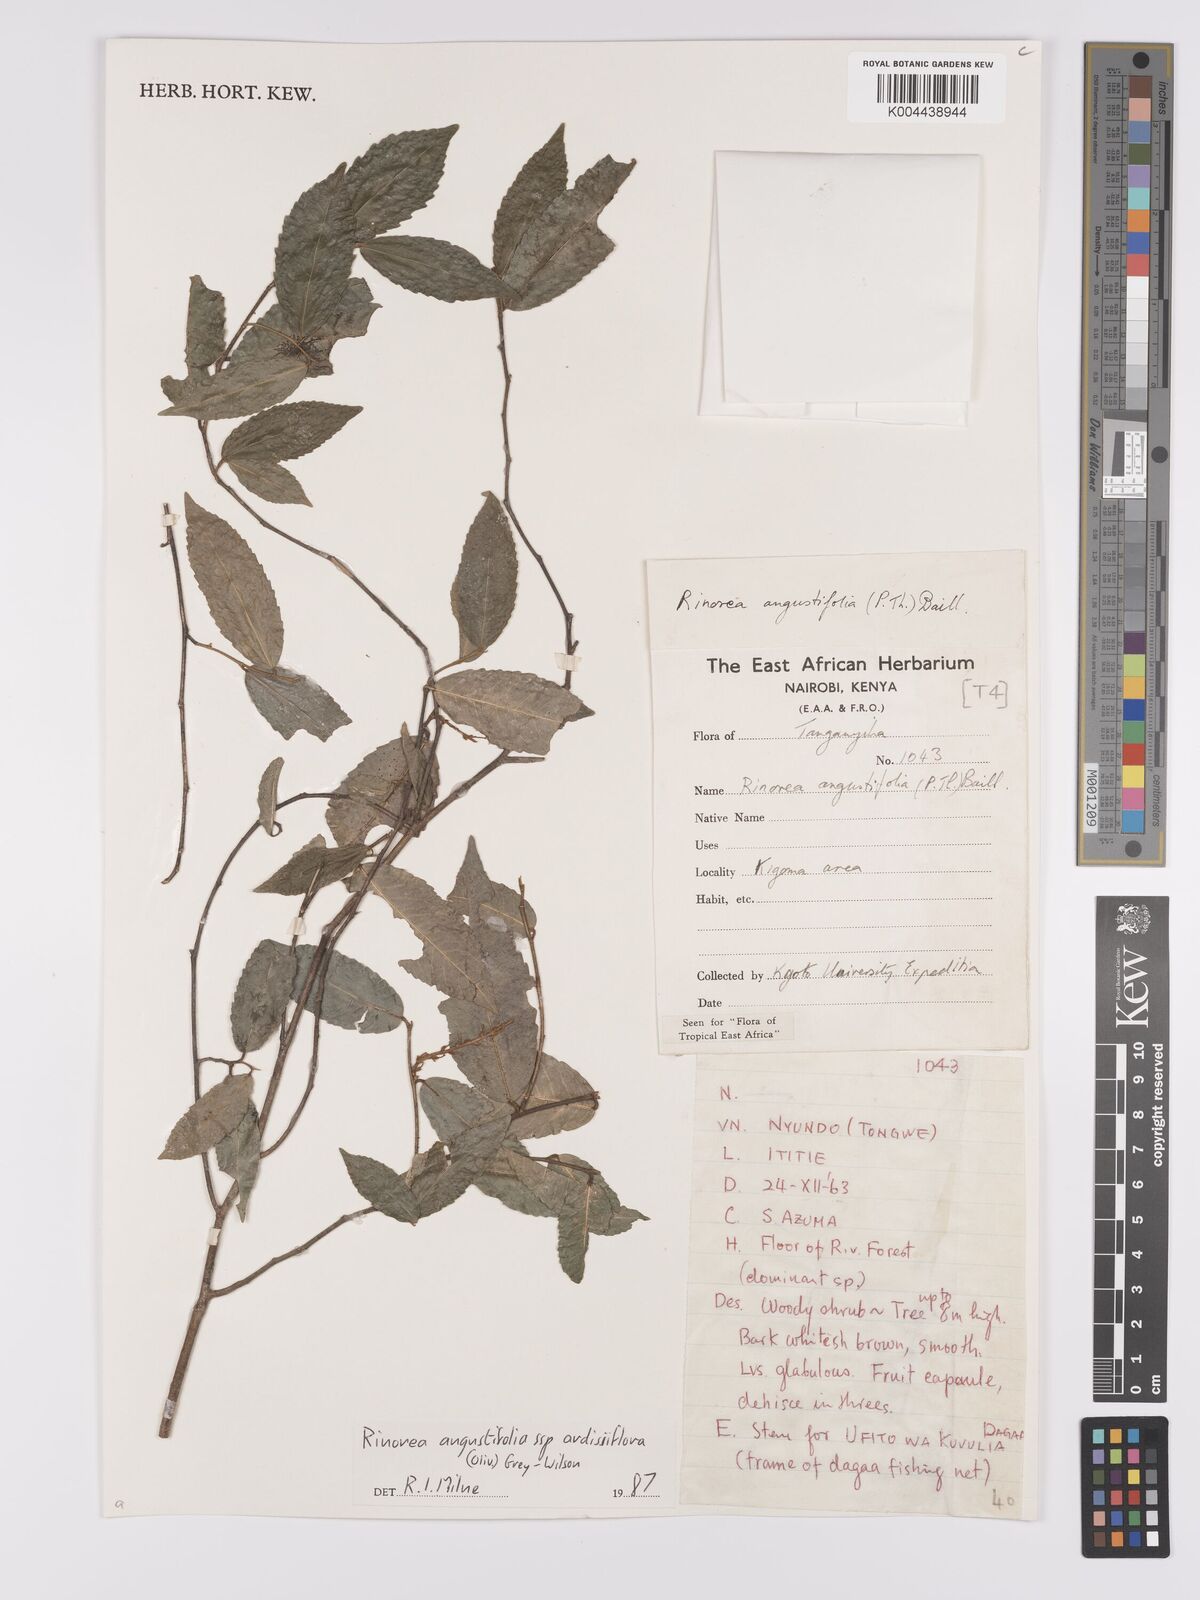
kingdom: Plantae
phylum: Tracheophyta
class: Magnoliopsida
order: Malpighiales
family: Violaceae
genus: Rinorea
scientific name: Rinorea angustifolia
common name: White violet-bush
